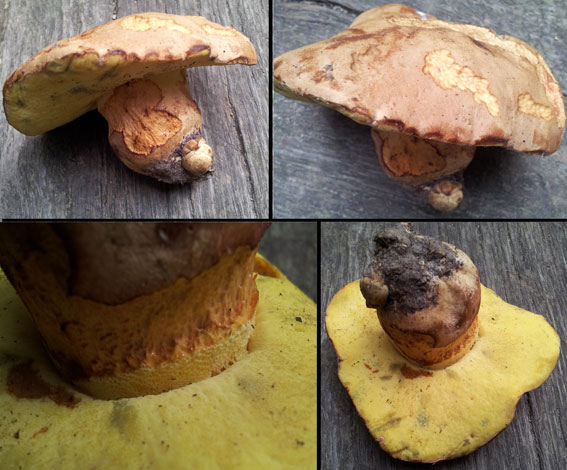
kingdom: Fungi
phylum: Basidiomycota
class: Agaricomycetes
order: Boletales
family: Boletaceae
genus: Butyriboletus
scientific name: Butyriboletus appendiculatus
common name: tenstokket rørhat
